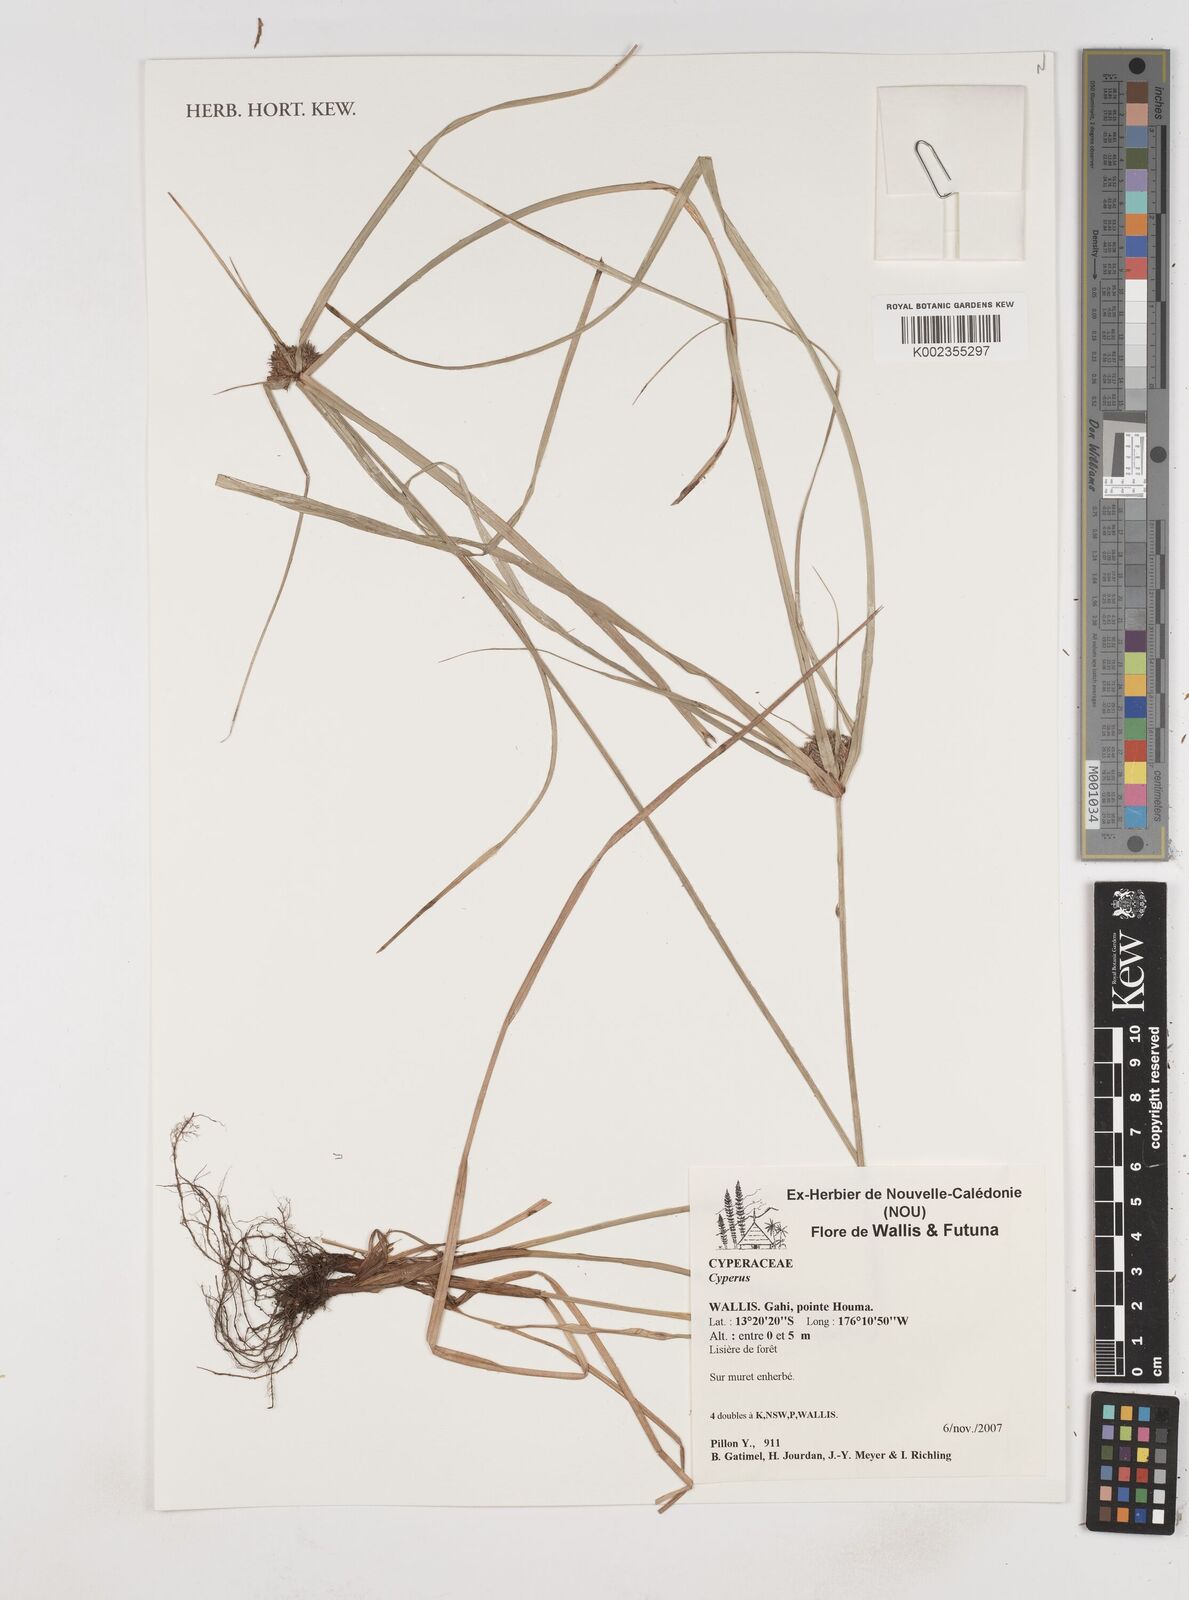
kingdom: Plantae
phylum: Tracheophyta
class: Liliopsida
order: Poales
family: Cyperaceae
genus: Cyperus
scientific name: Cyperus
